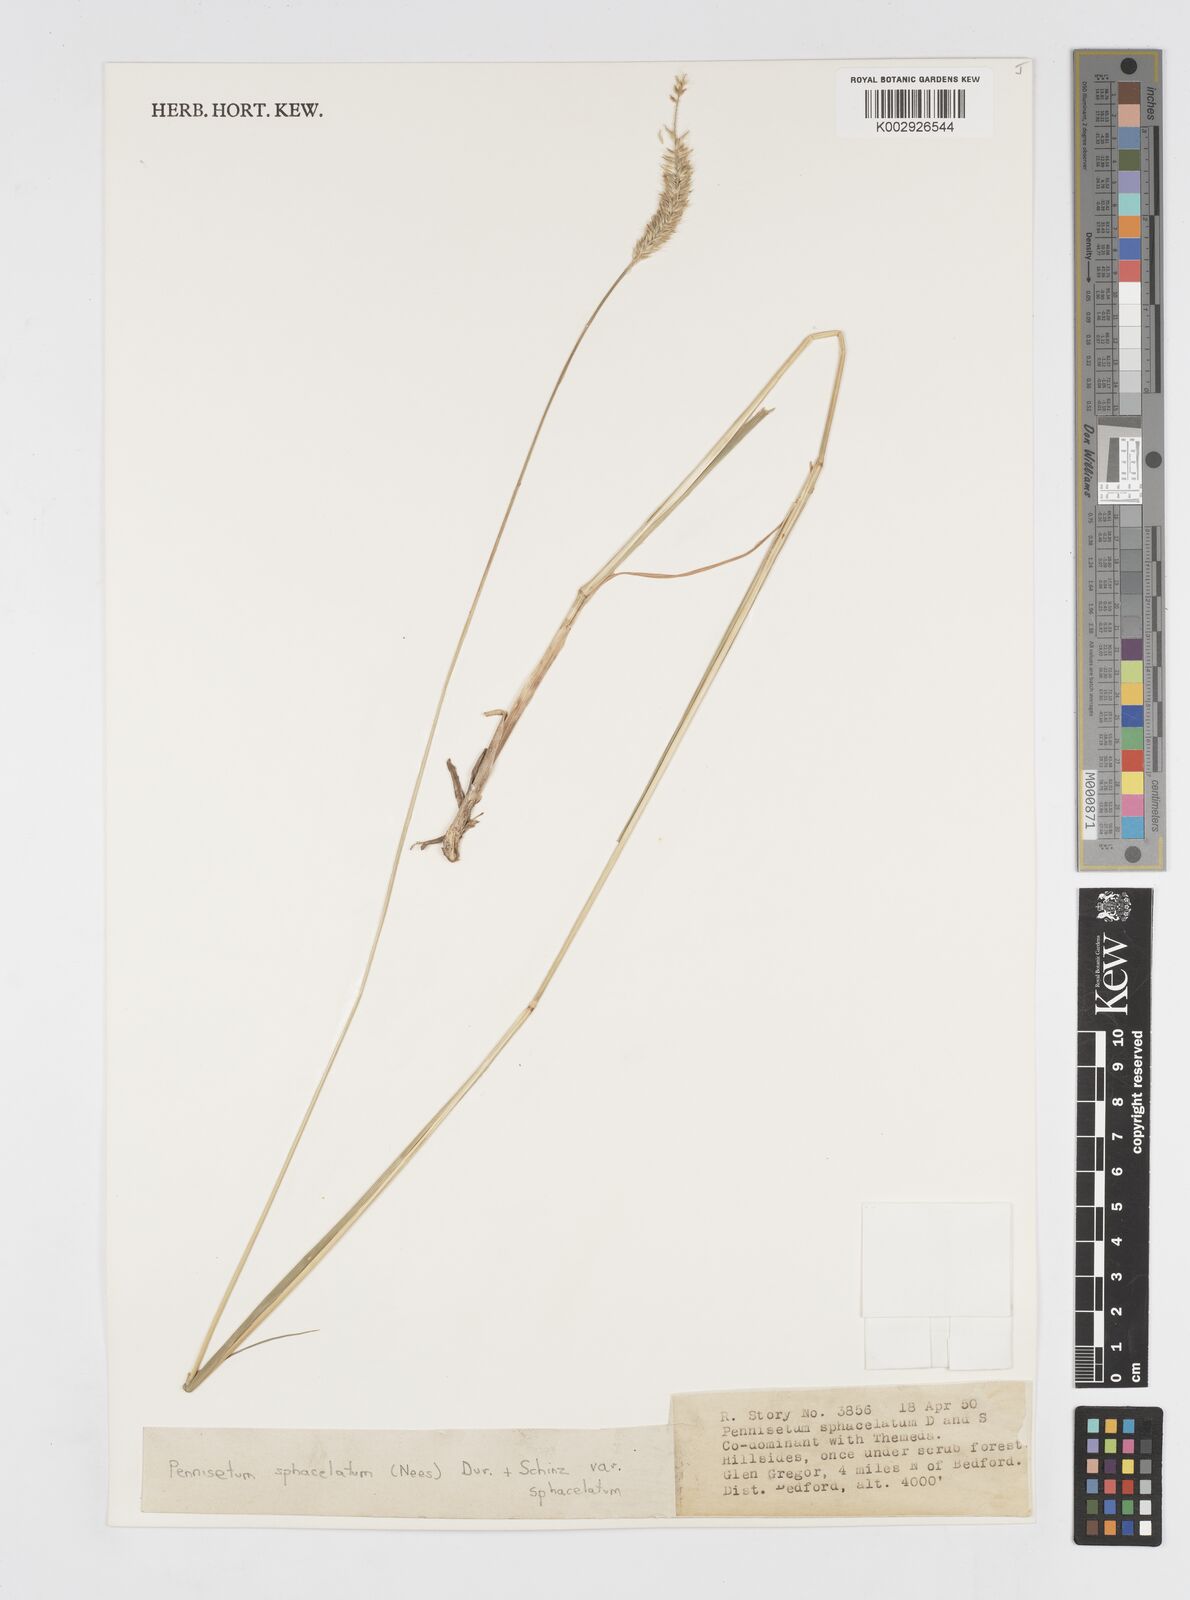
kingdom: Plantae
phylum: Tracheophyta
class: Liliopsida
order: Poales
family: Poaceae
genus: Cenchrus
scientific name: Cenchrus sphacelatus
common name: Bulgras
